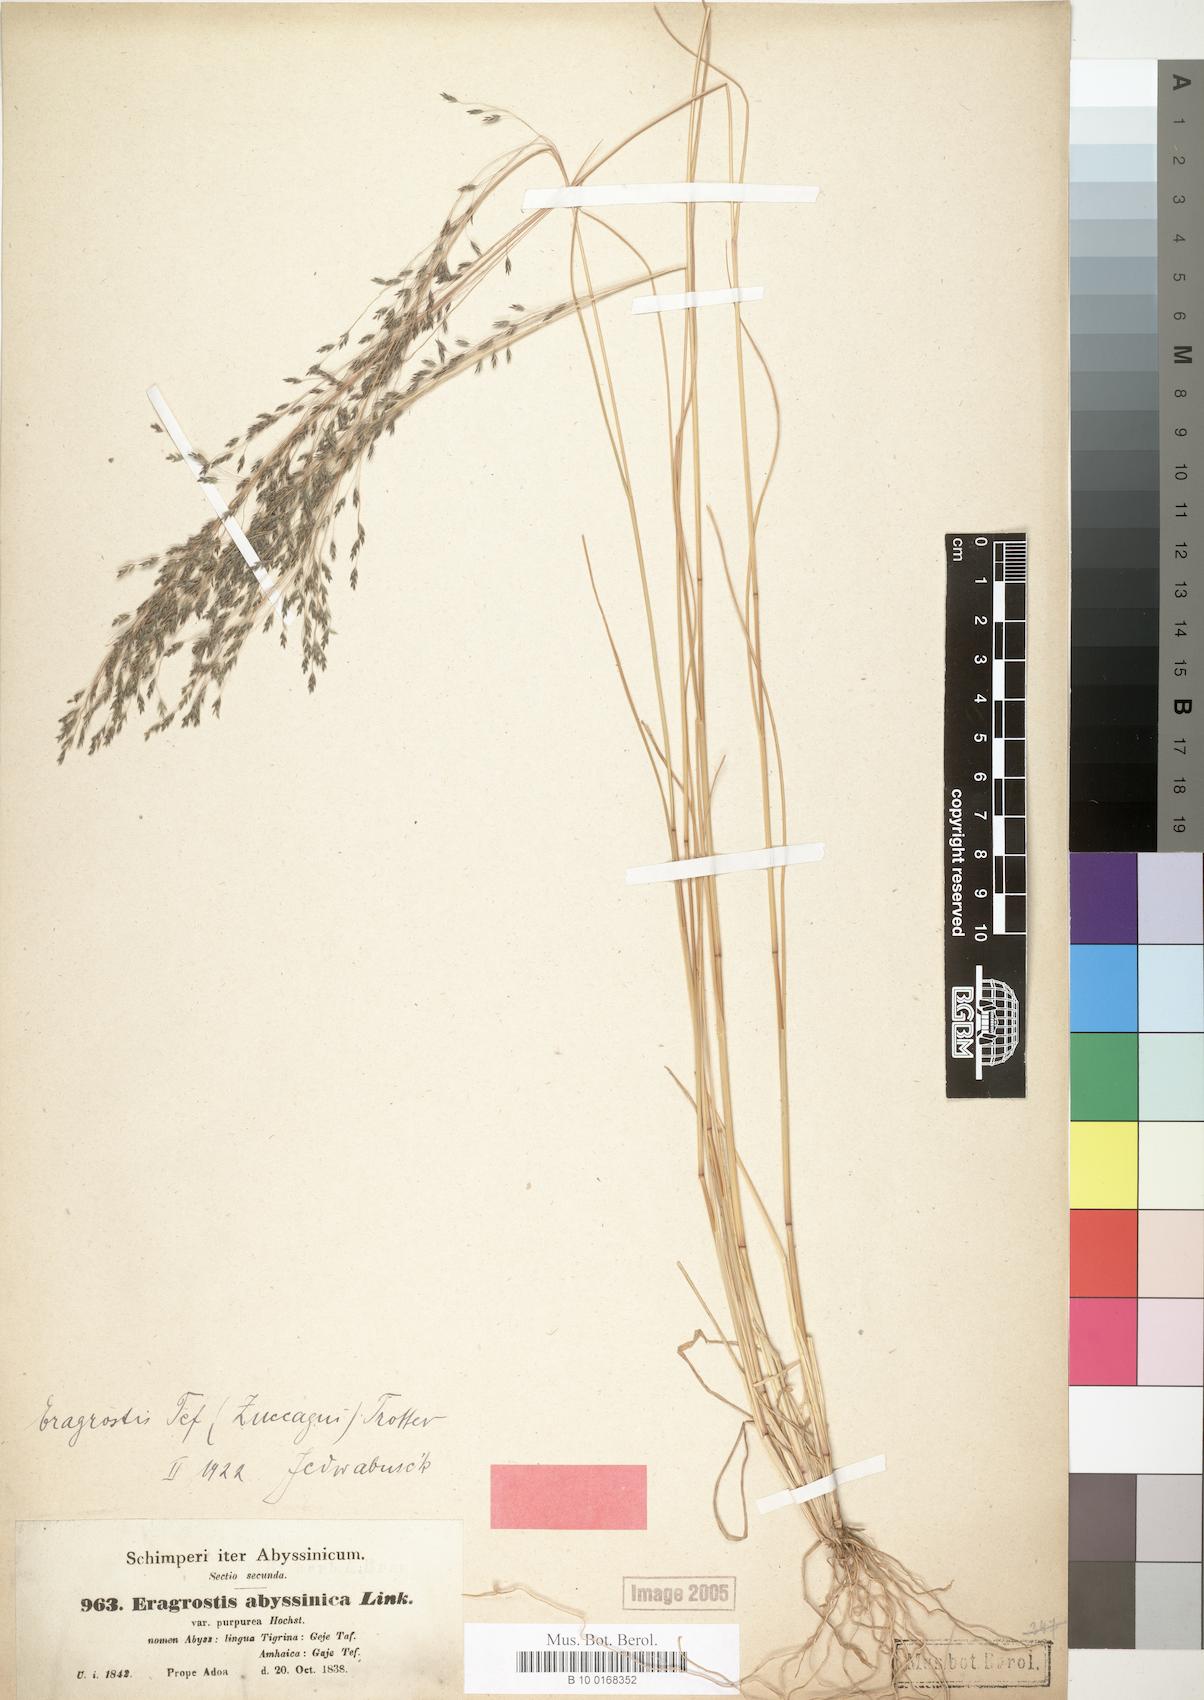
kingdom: Plantae
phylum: Tracheophyta
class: Liliopsida
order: Poales
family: Poaceae
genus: Eragrostis
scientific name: Eragrostis abyssinica
